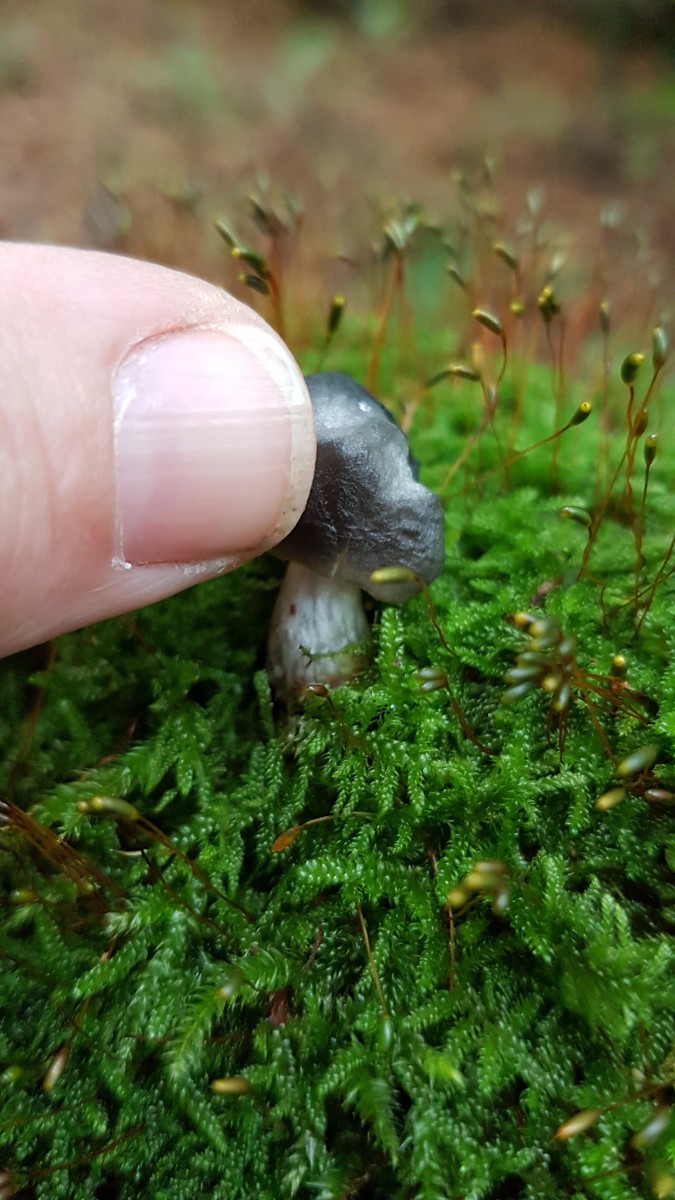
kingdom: Fungi
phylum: Basidiomycota
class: Agaricomycetes
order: Agaricales
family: Pluteaceae
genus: Pluteus
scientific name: Pluteus salicinus
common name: stiv skærmhat
